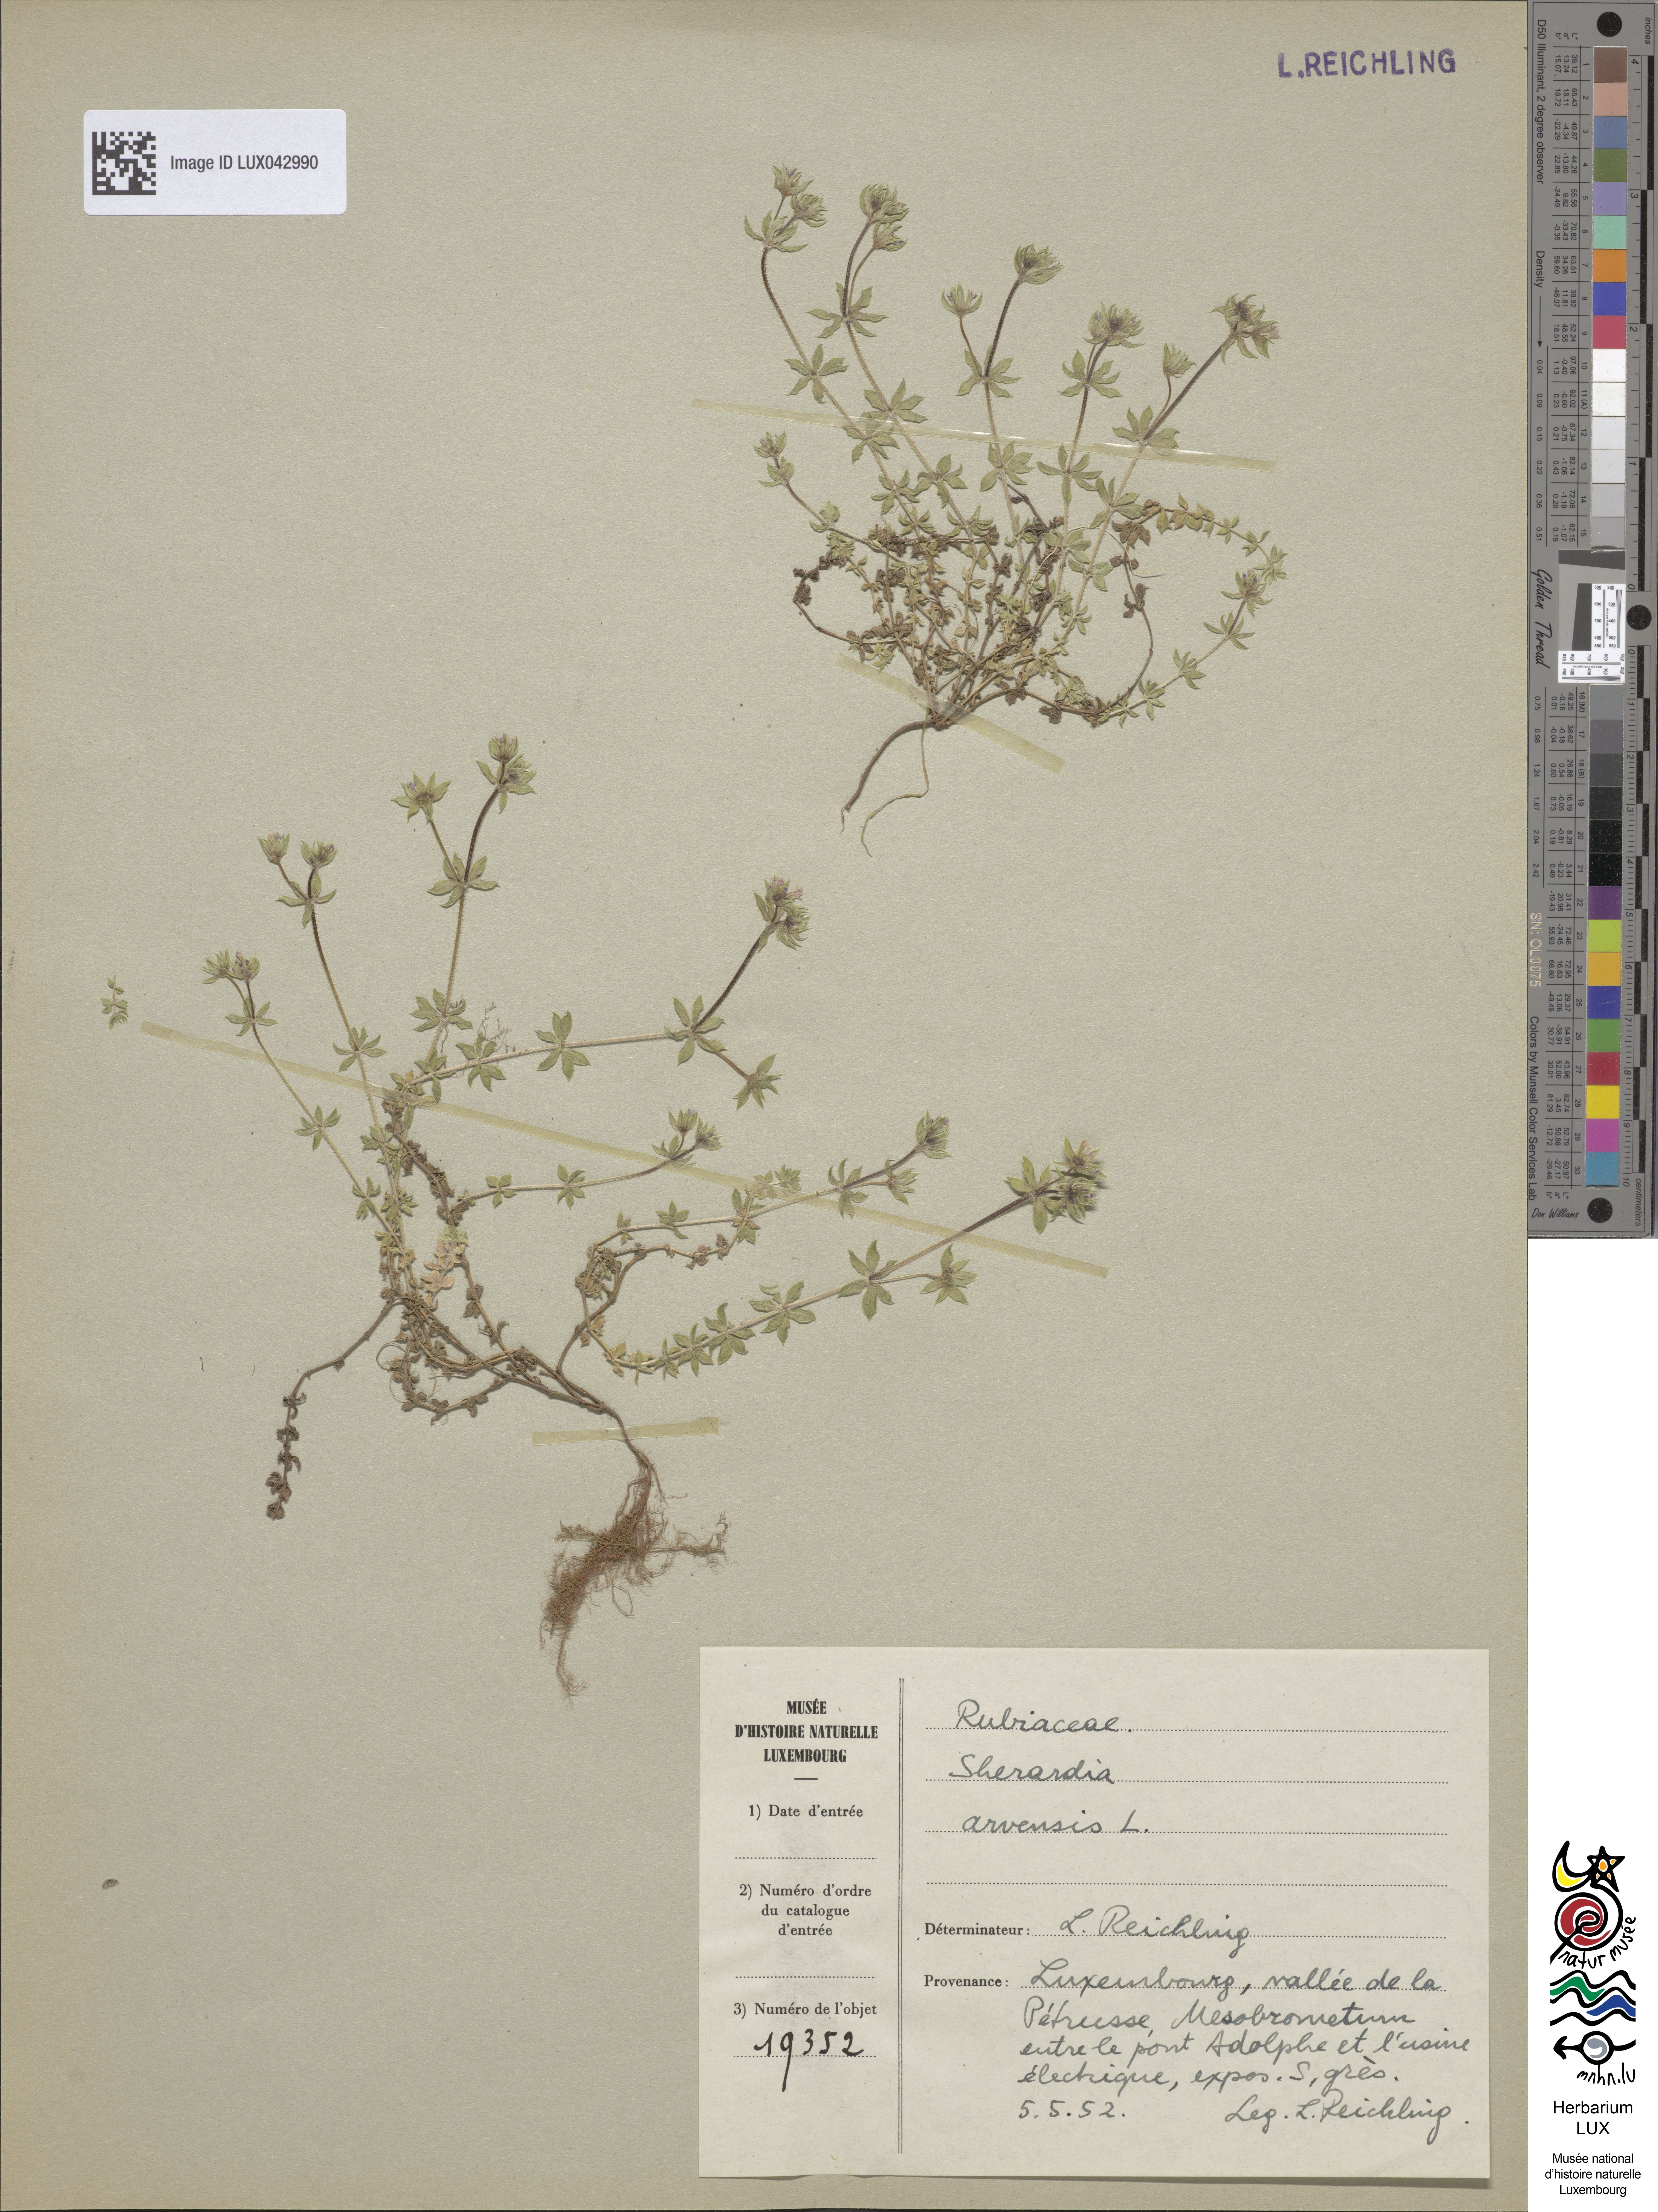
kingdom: Plantae
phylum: Tracheophyta
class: Magnoliopsida
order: Gentianales
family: Rubiaceae
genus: Sherardia
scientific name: Sherardia arvensis
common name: Field madder
